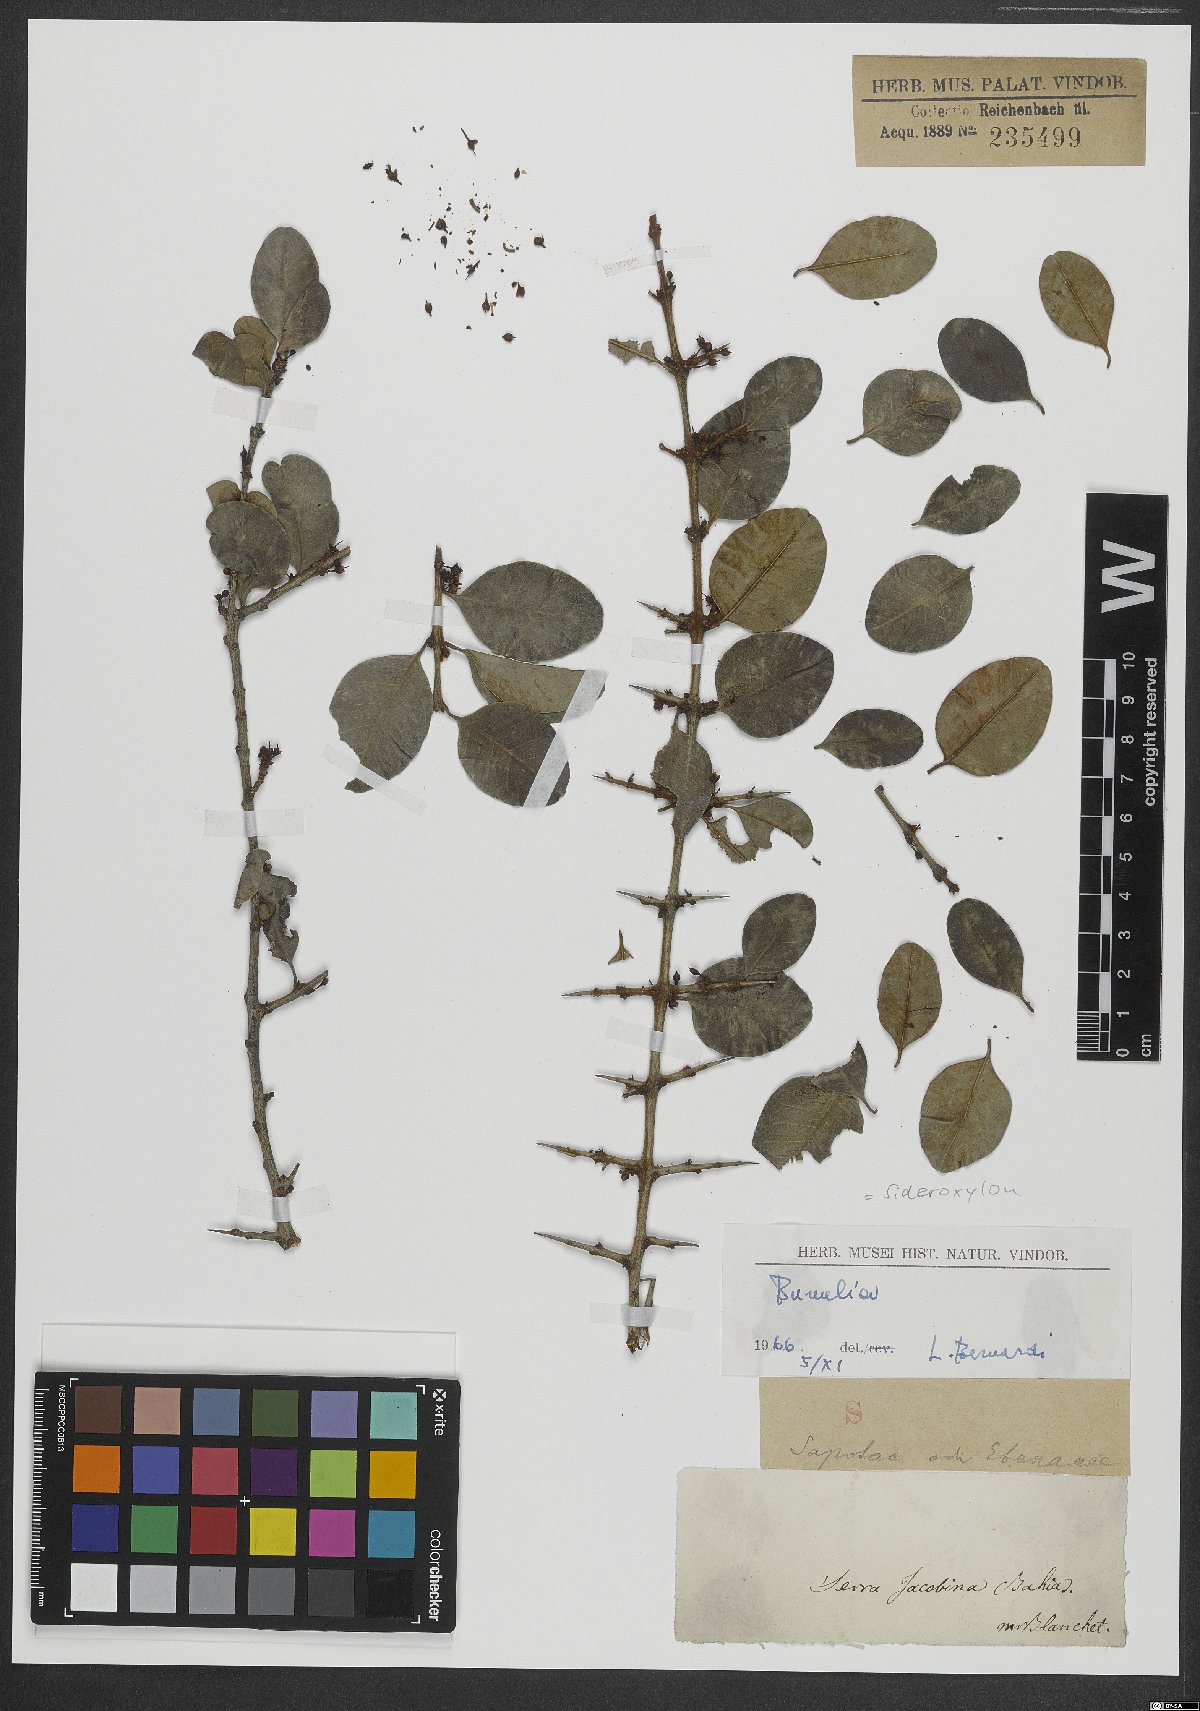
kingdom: Plantae
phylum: Tracheophyta
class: Magnoliopsida
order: Ericales
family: Sapotaceae
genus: Sideroxylon
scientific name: Sideroxylon
